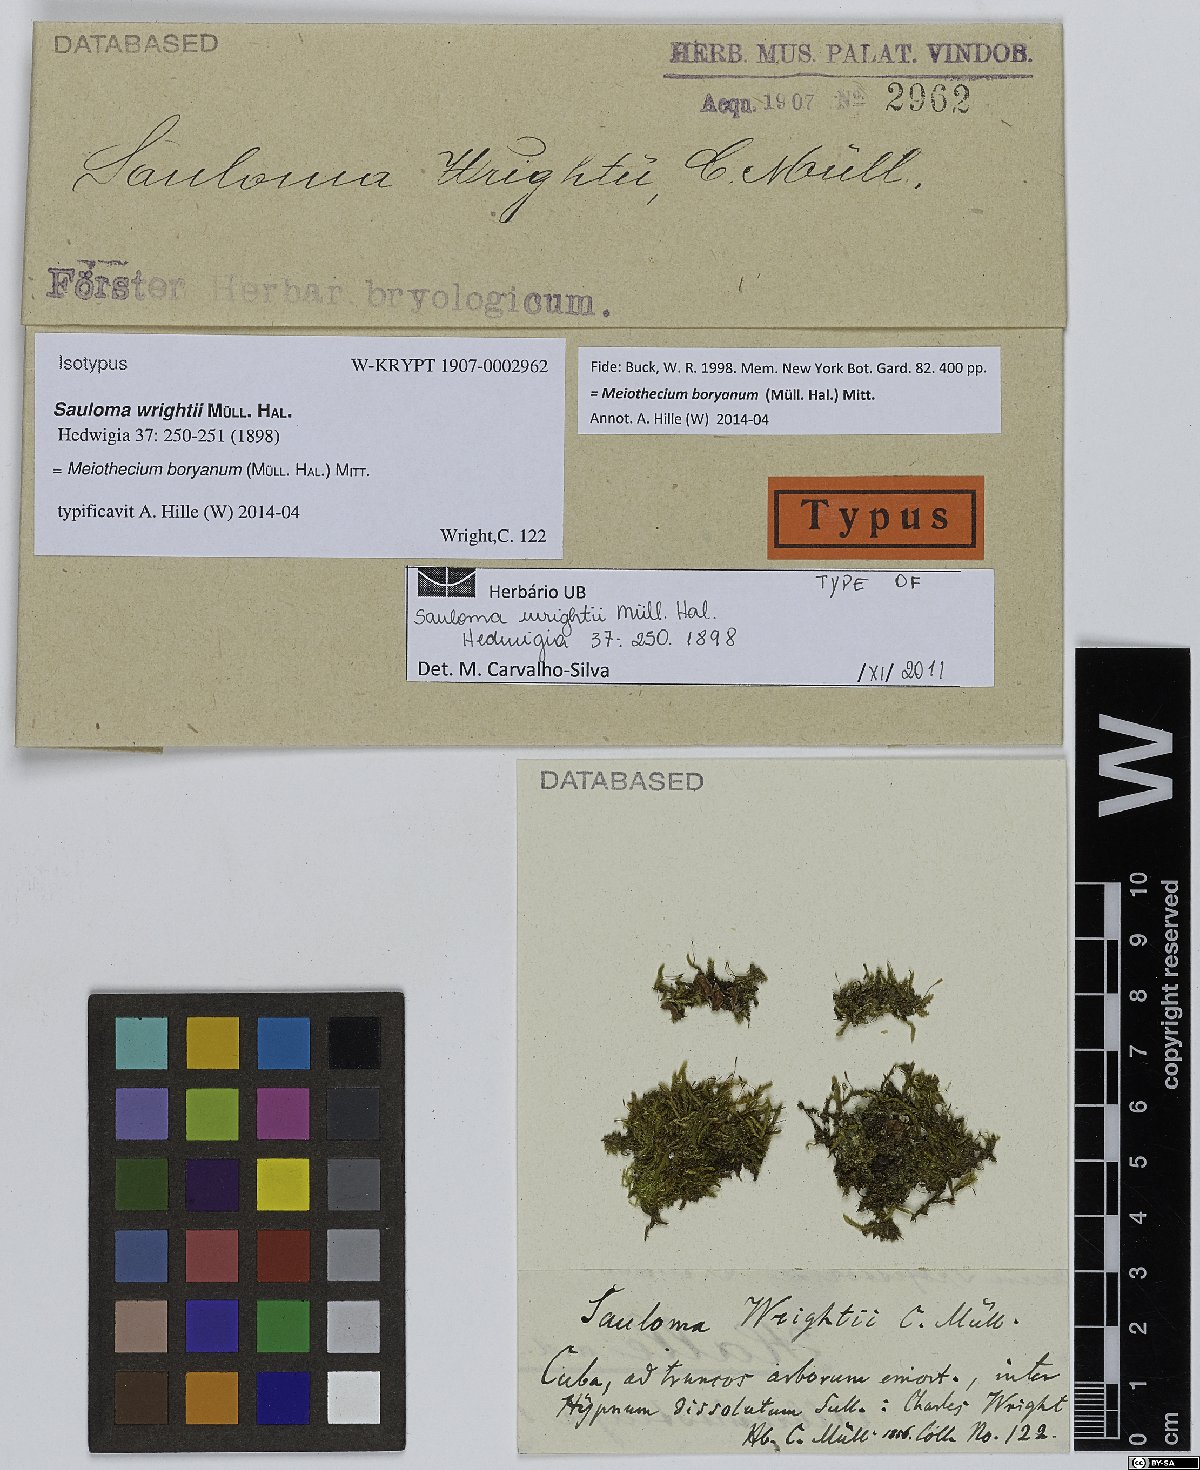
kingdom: Plantae
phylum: Bryophyta
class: Bryopsida
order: Hypnales
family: Sematophyllaceae
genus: Meiothecium
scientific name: Meiothecium boryanum
